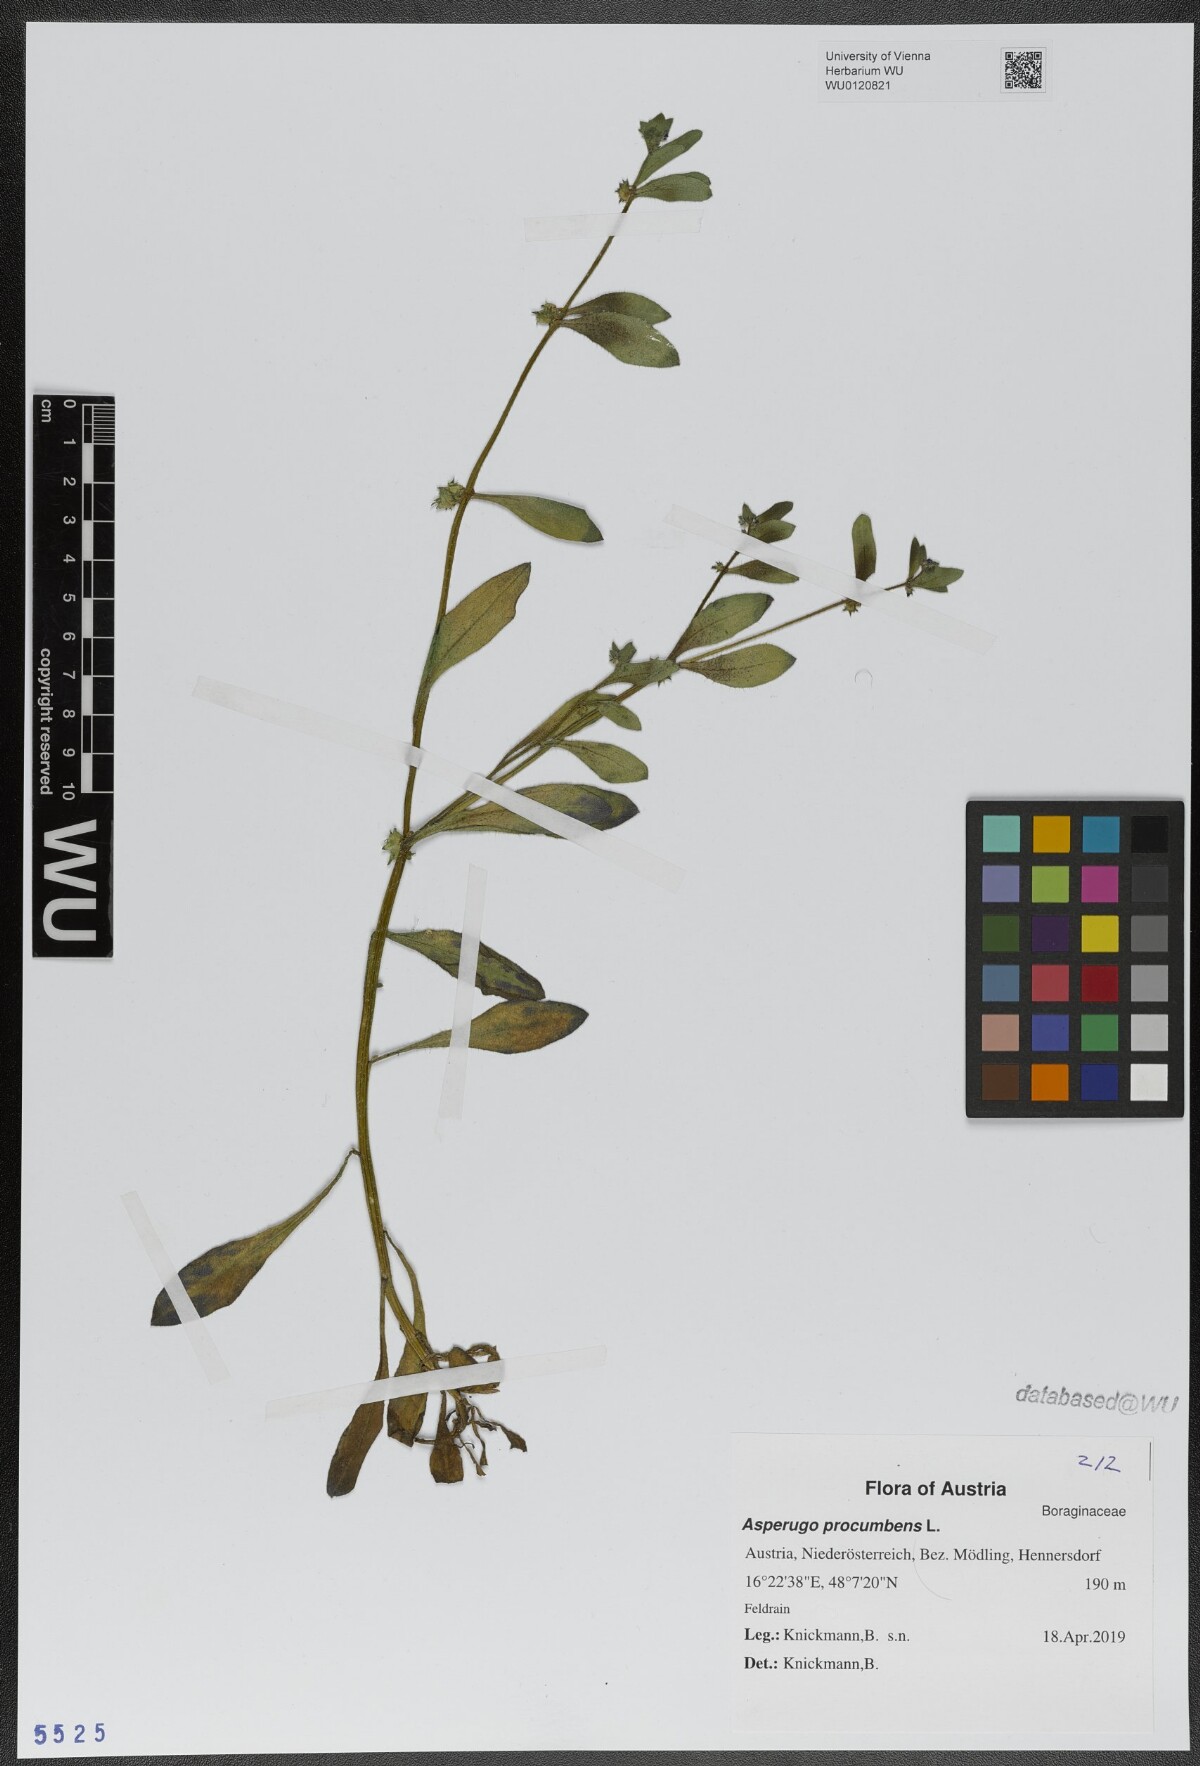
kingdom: Plantae
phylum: Tracheophyta
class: Magnoliopsida
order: Boraginales
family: Boraginaceae
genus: Asperugo
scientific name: Asperugo procumbens
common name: Madwort
